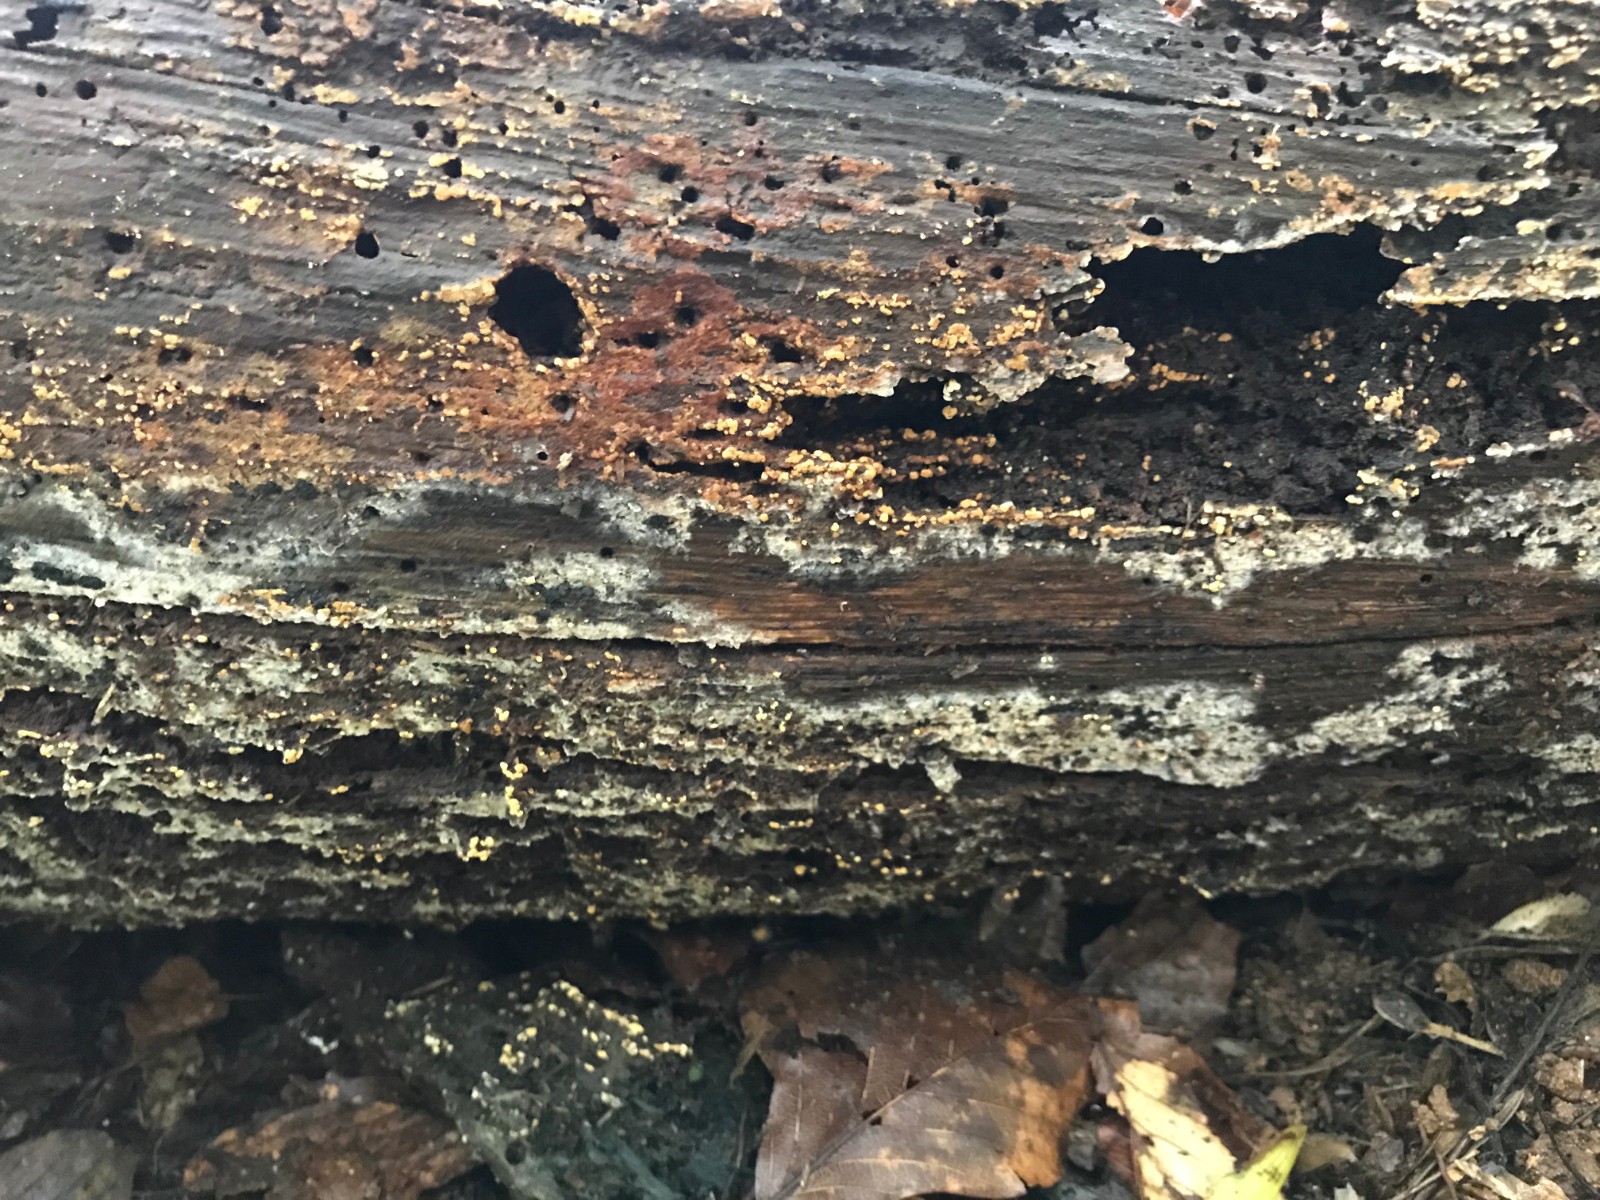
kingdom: Fungi
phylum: Basidiomycota
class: Agaricomycetes
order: Cantharellales
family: Botryobasidiaceae
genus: Botryobasidium
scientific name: Botryobasidium aureum
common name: gylden spindhinde
